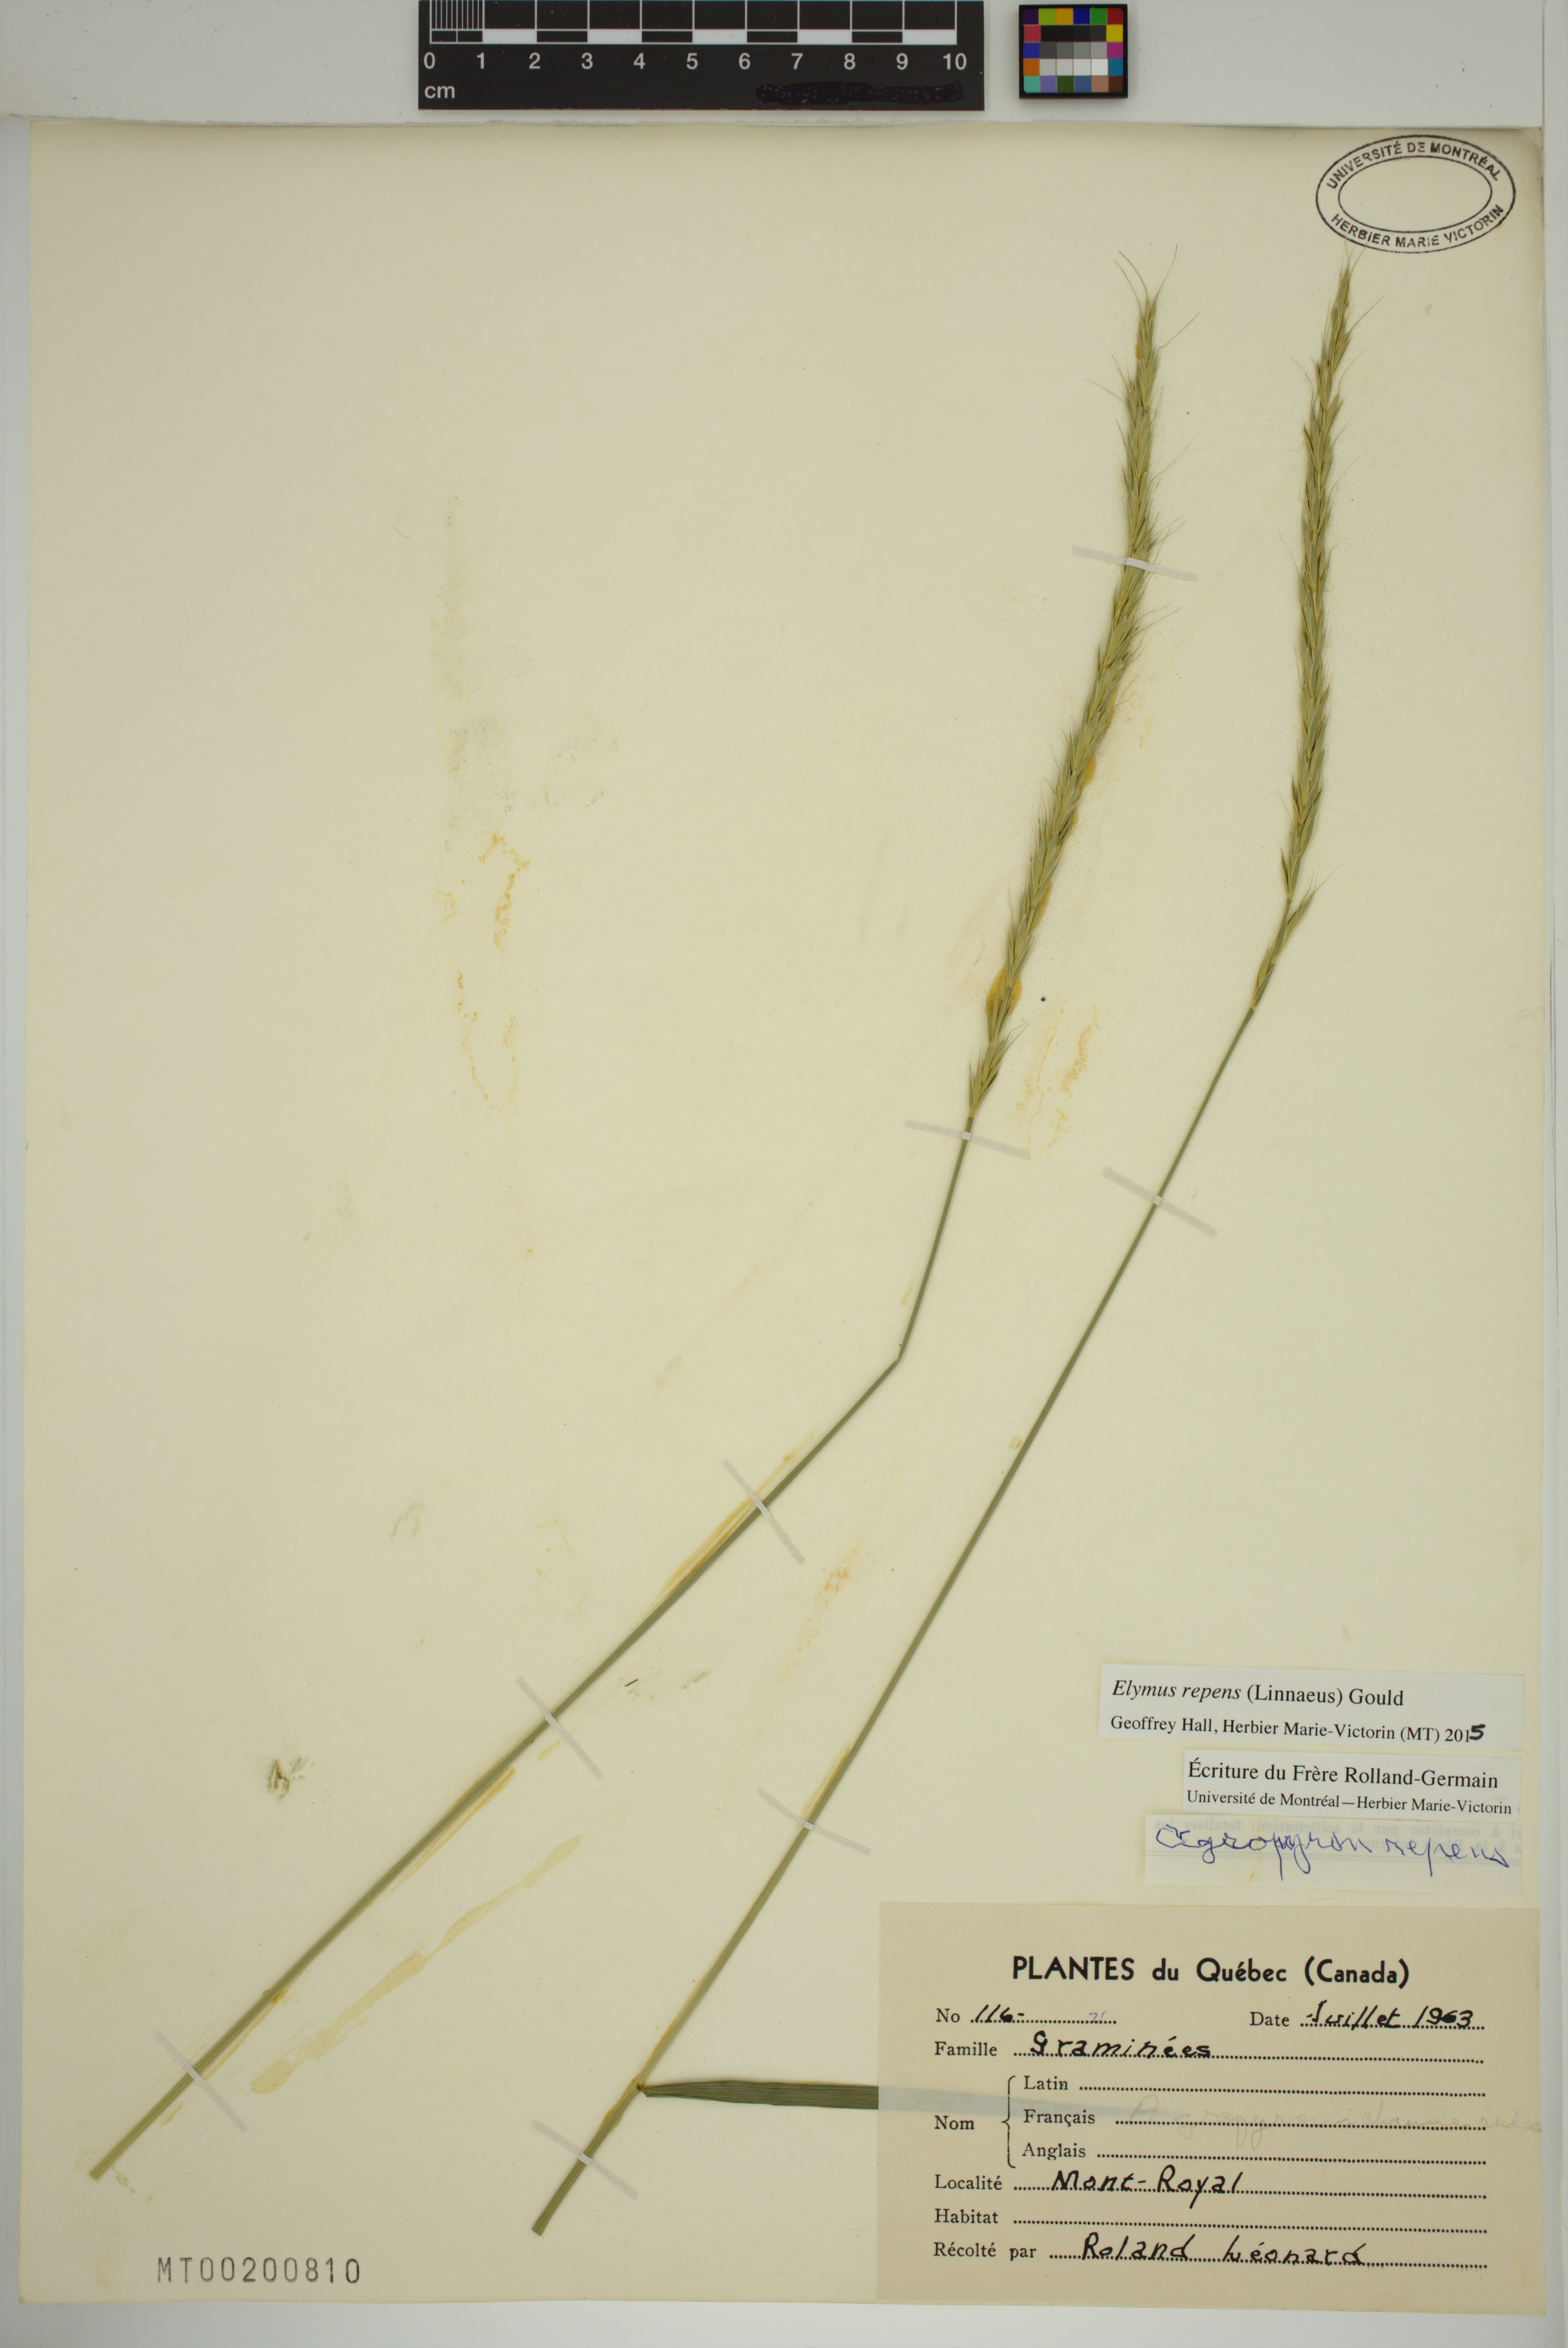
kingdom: Plantae
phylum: Tracheophyta
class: Liliopsida
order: Poales
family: Poaceae
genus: Elymus
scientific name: Elymus repens
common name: Quackgrass
